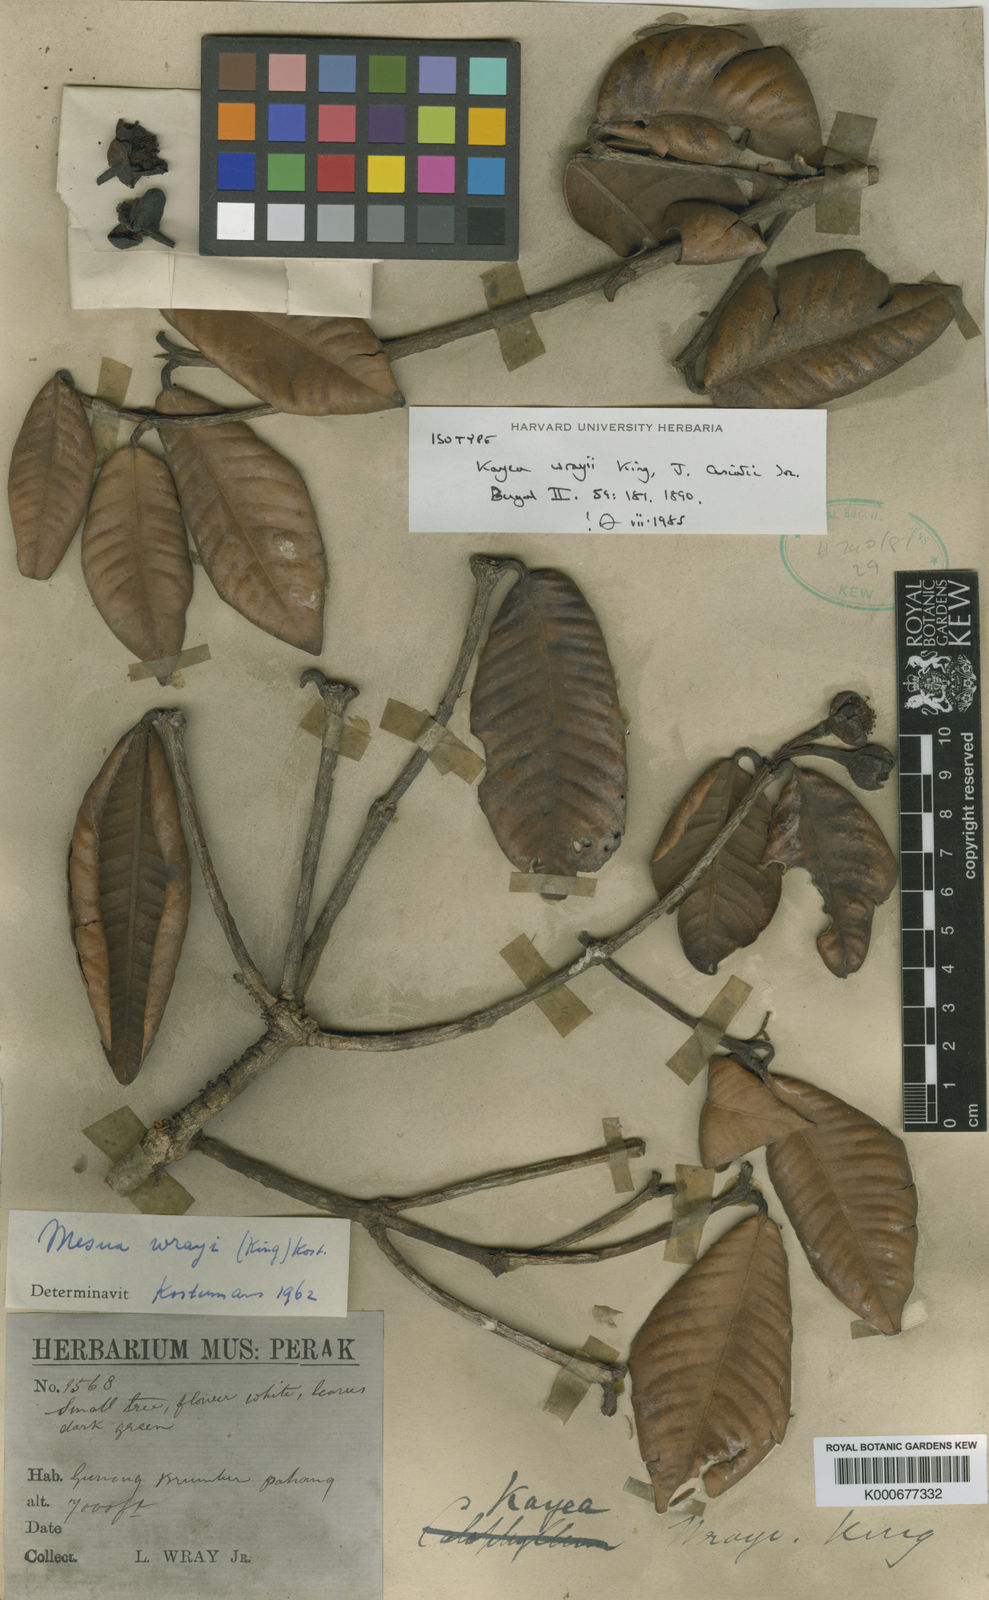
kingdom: Plantae
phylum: Tracheophyta
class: Magnoliopsida
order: Malpighiales
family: Calophyllaceae
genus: Kayea
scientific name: Kayea wrayi
